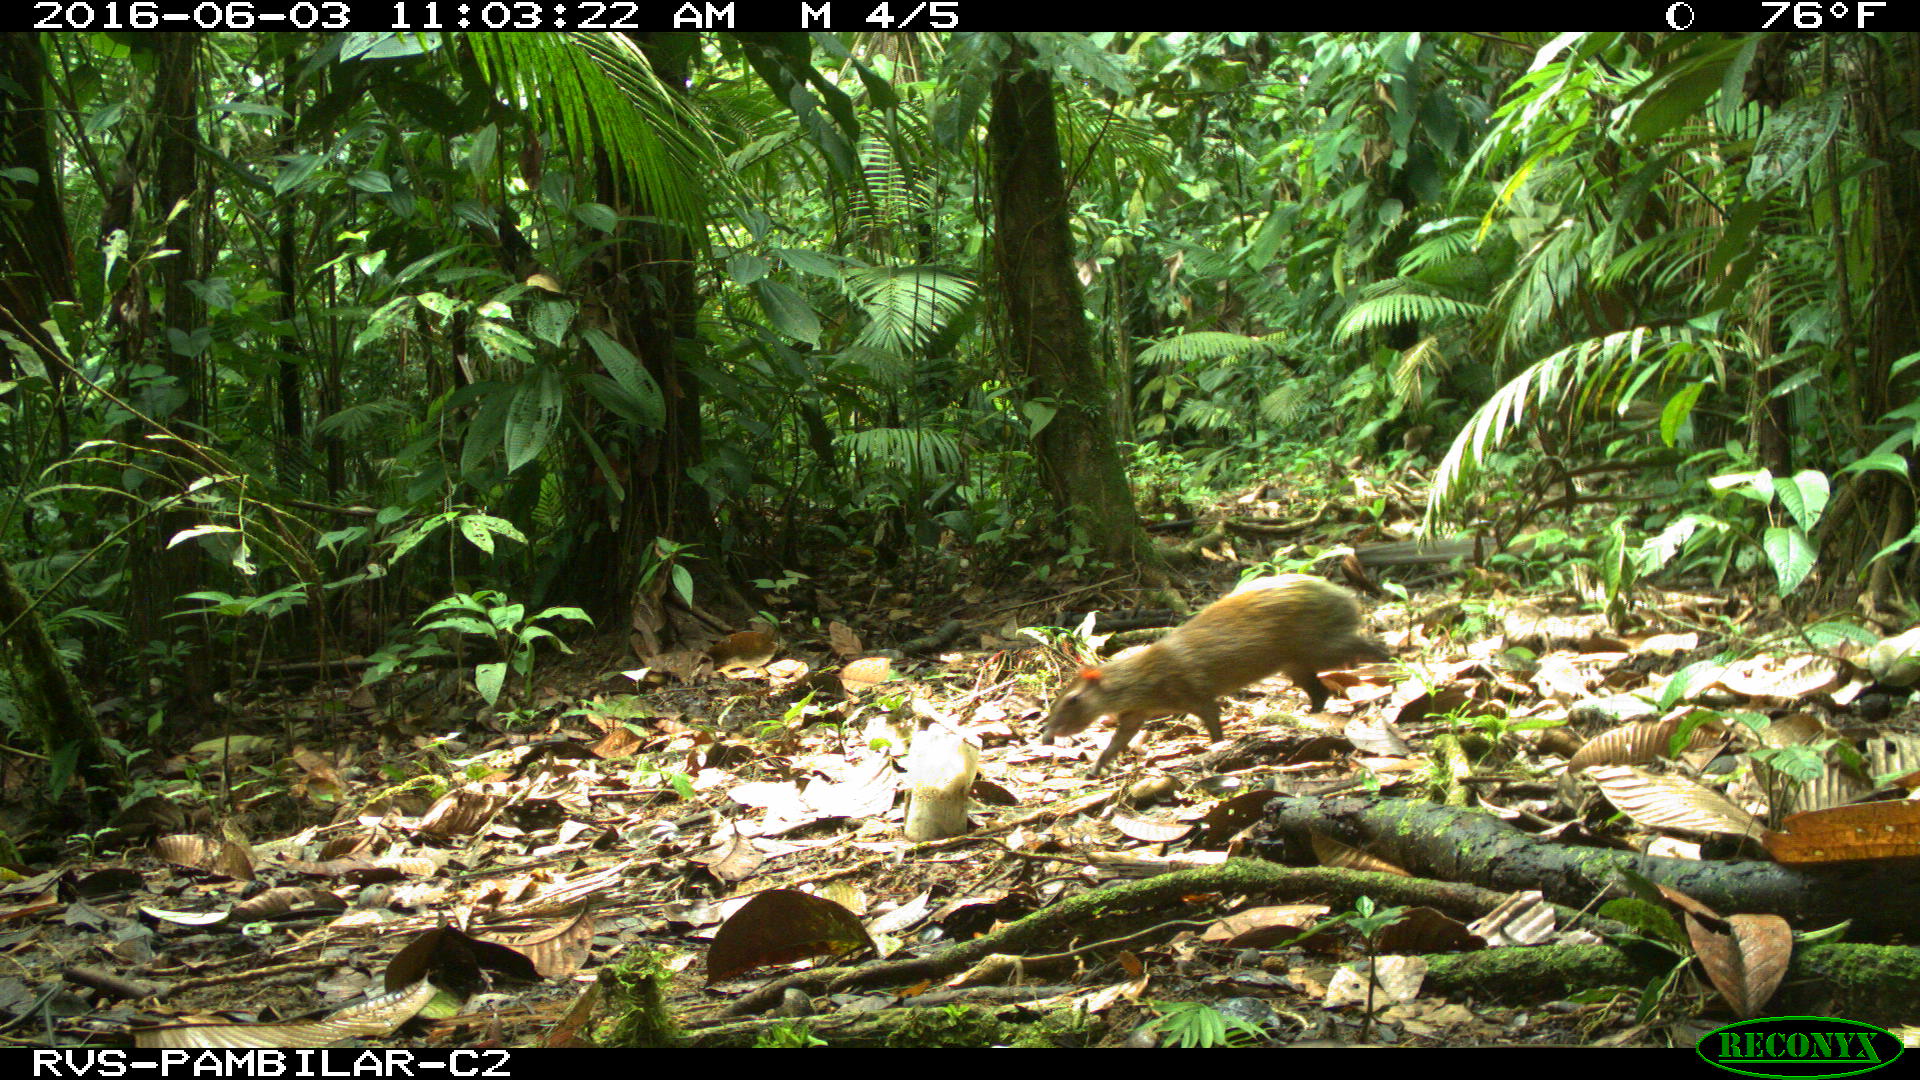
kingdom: Animalia
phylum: Chordata
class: Mammalia
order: Rodentia
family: Dasyproctidae
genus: Dasyprocta
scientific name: Dasyprocta punctata
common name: Central american agouti
